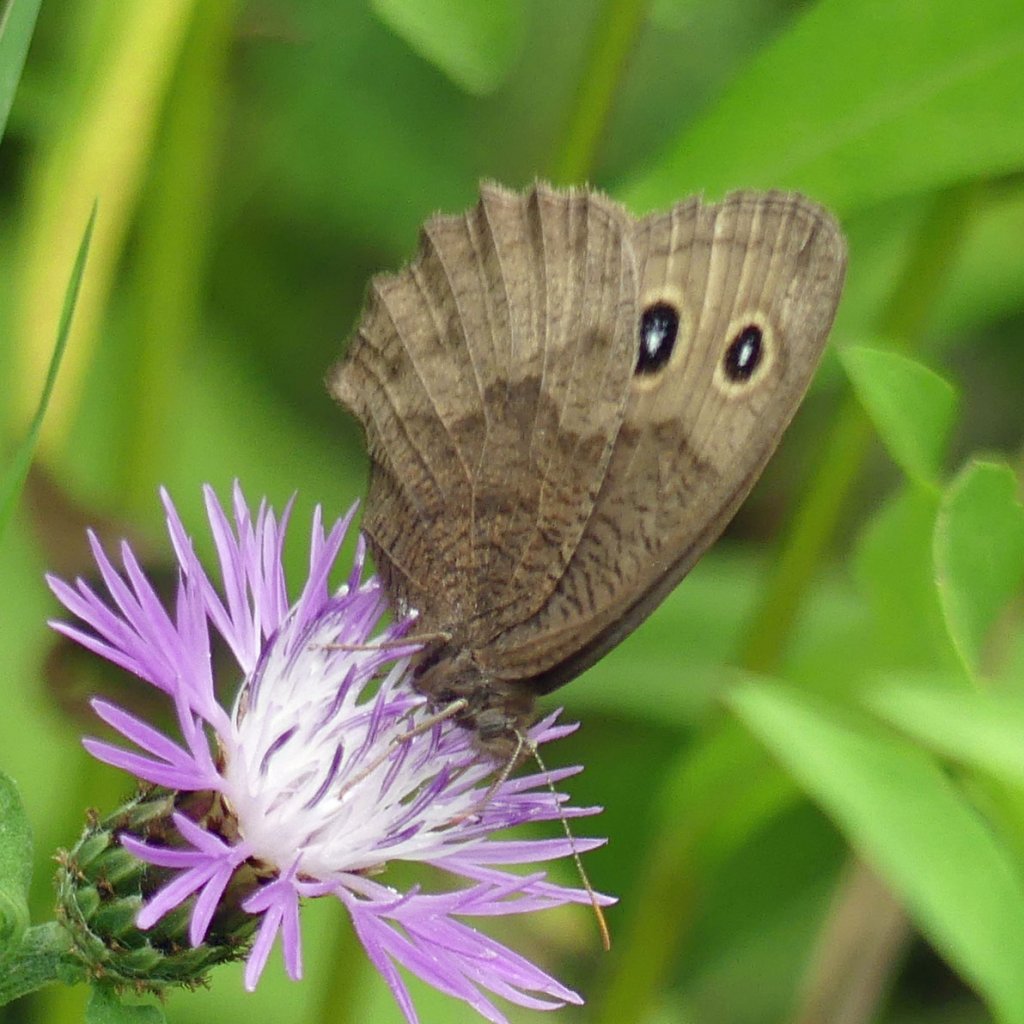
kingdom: Animalia
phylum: Arthropoda
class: Insecta
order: Lepidoptera
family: Nymphalidae
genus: Cercyonis
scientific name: Cercyonis pegala
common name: Common Wood-Nymph
